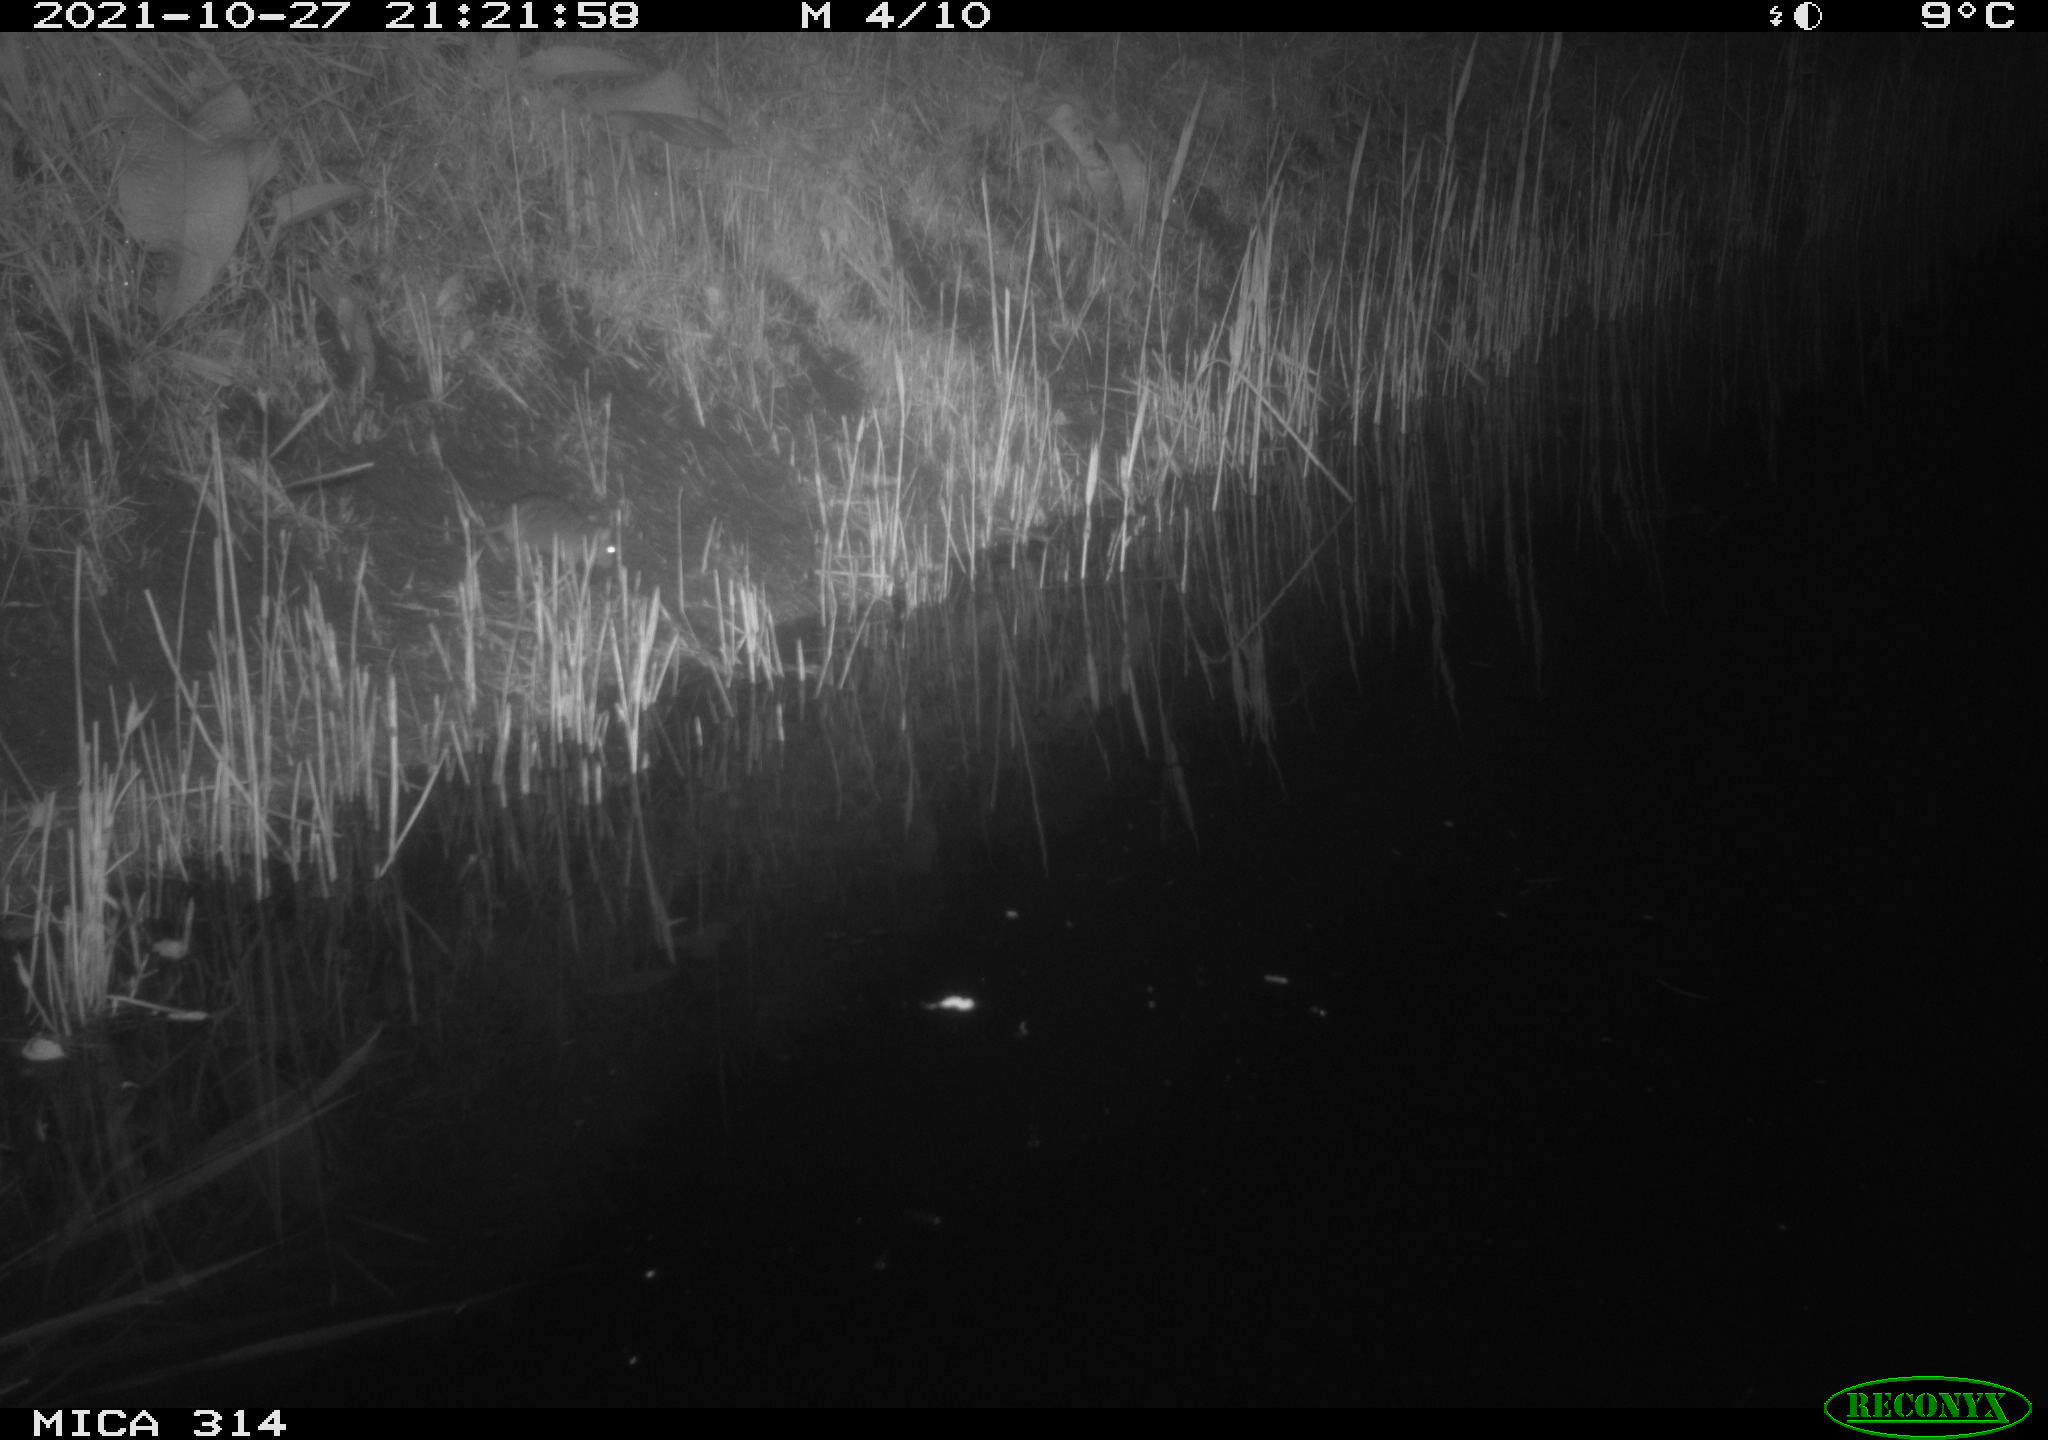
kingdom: Animalia
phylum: Chordata
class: Mammalia
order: Rodentia
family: Muridae
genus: Rattus
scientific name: Rattus norvegicus
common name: Brown rat
